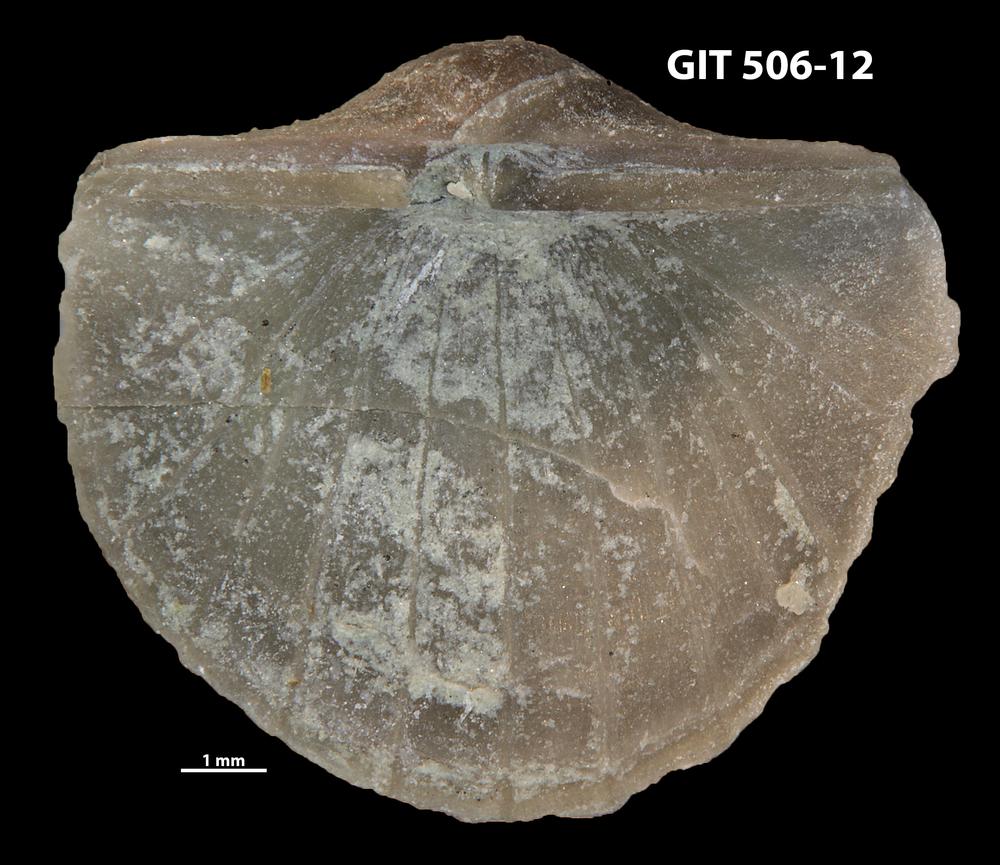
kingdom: Animalia
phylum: Brachiopoda
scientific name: Brachiopoda
